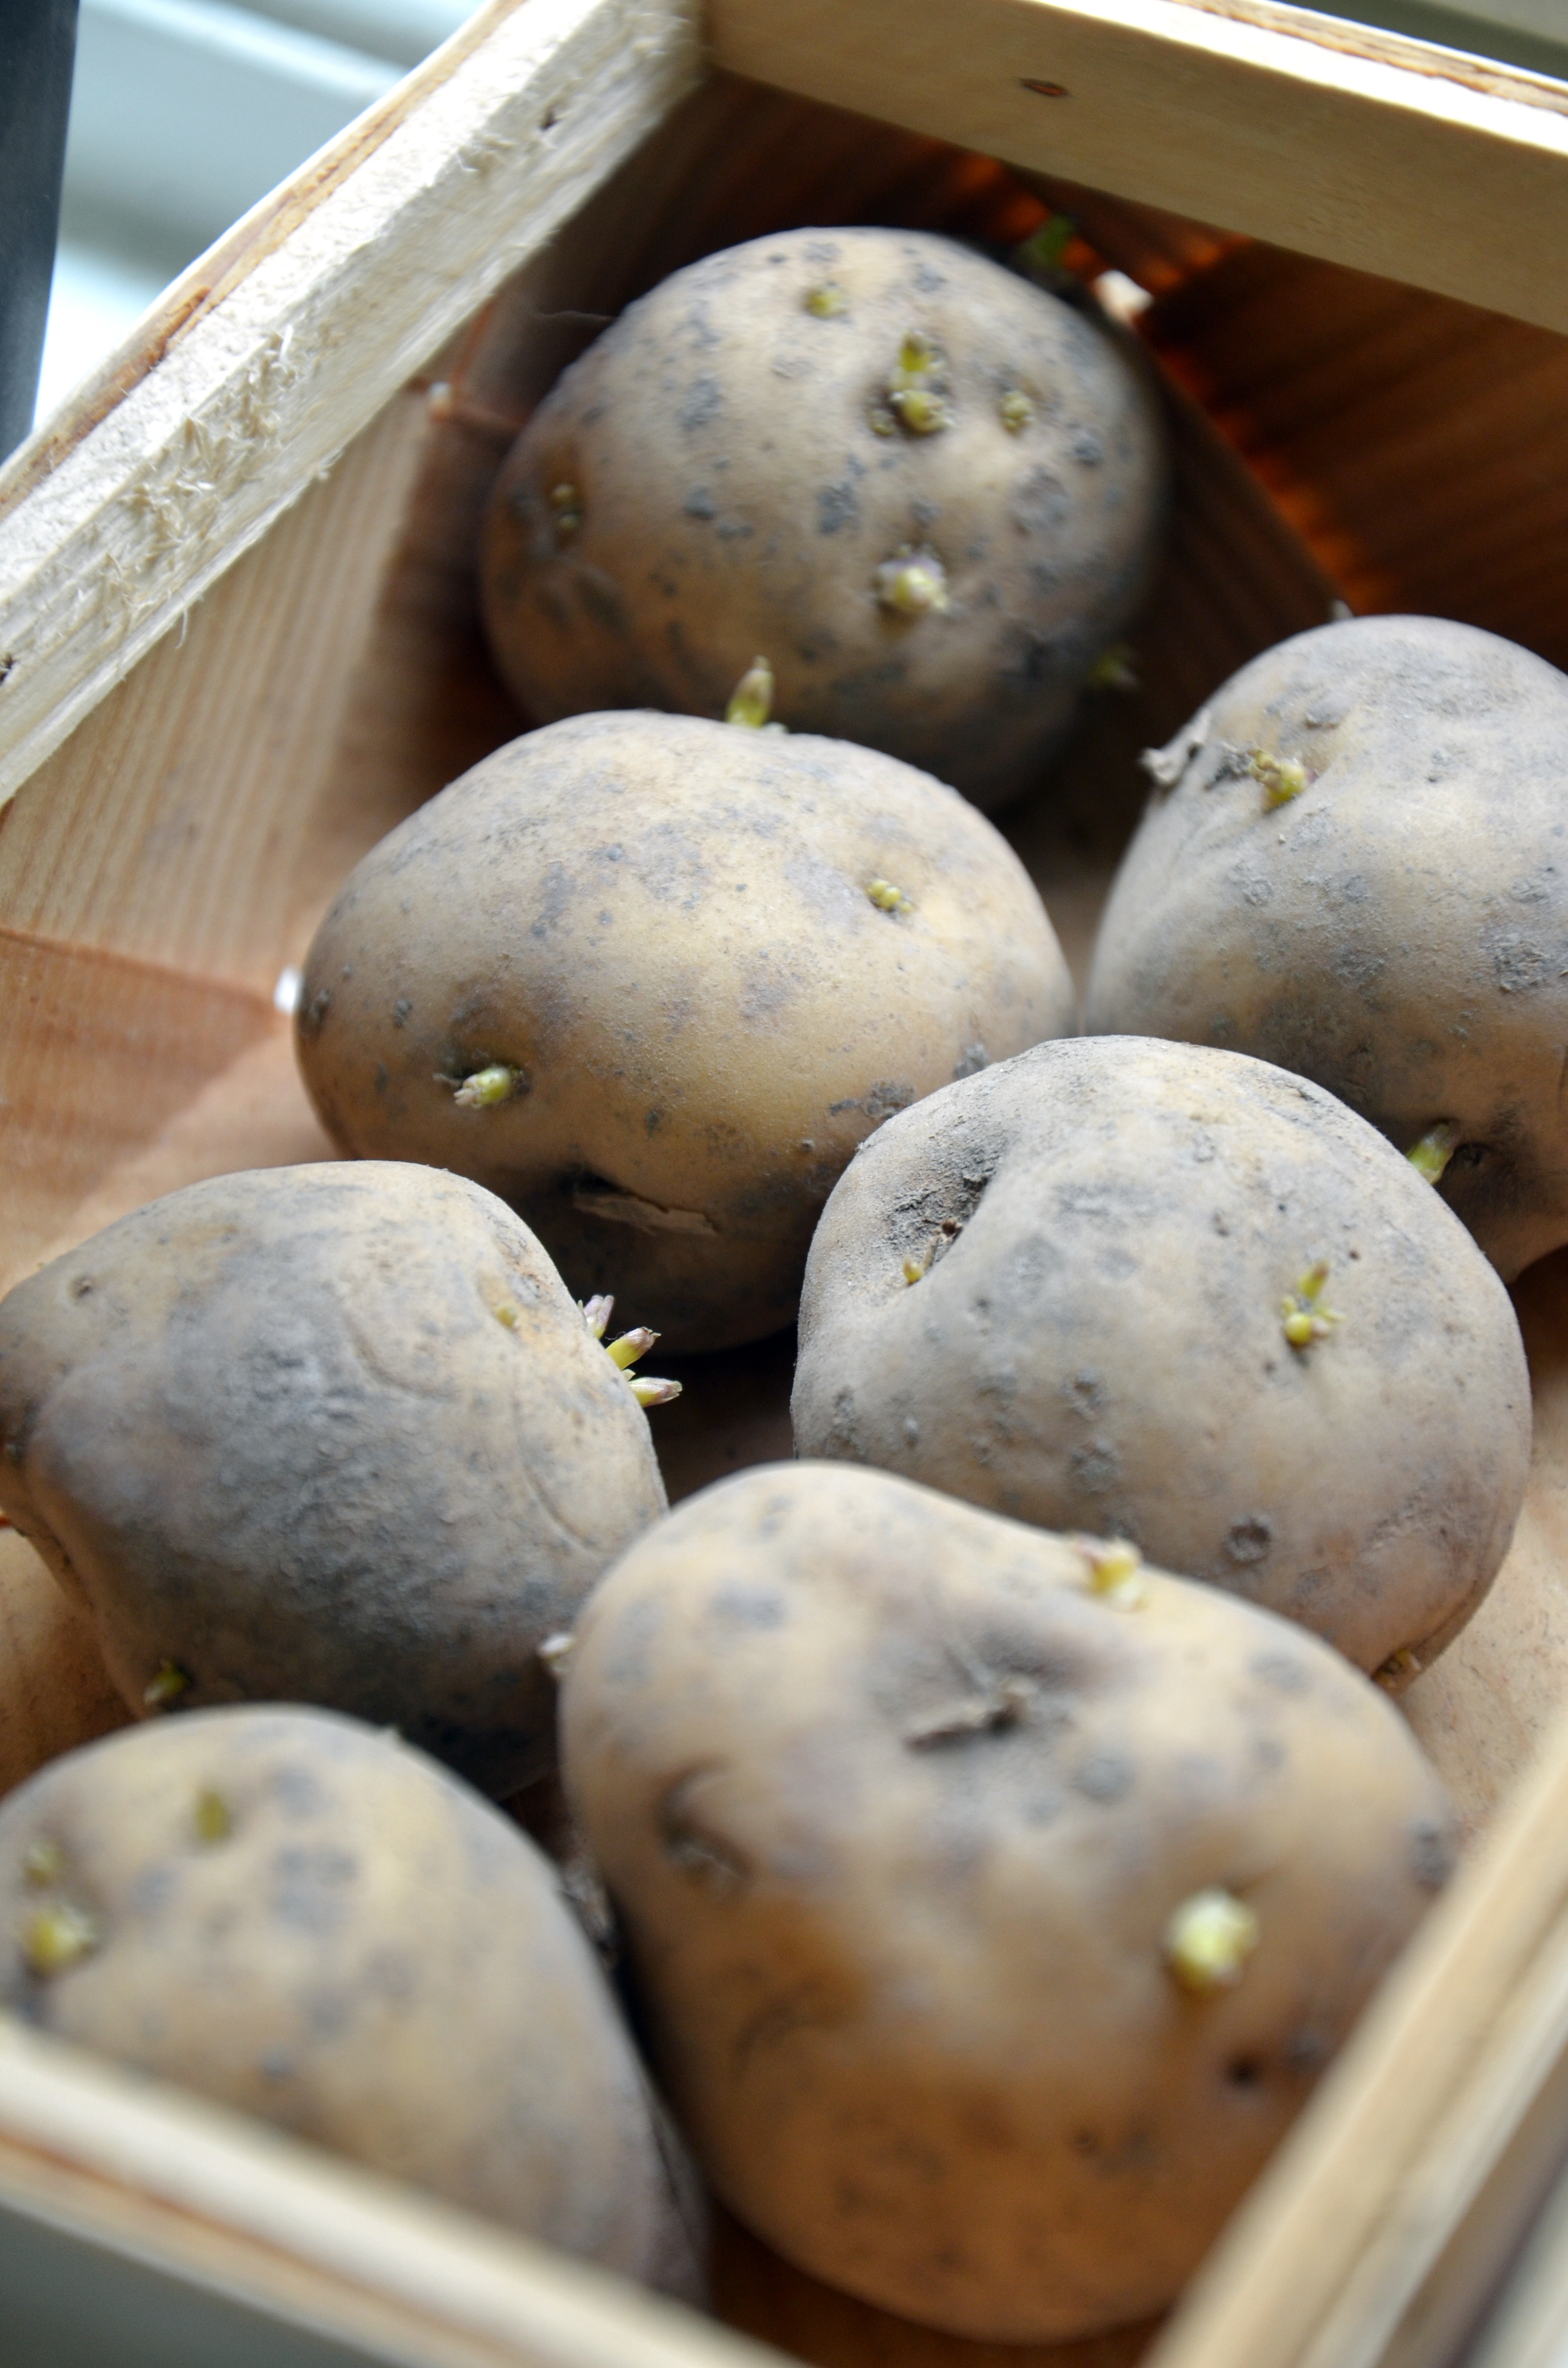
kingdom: Plantae
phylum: Tracheophyta
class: Magnoliopsida
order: Solanales
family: Solanaceae
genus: Solanum
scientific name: Solanum tuberosum
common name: Potato
